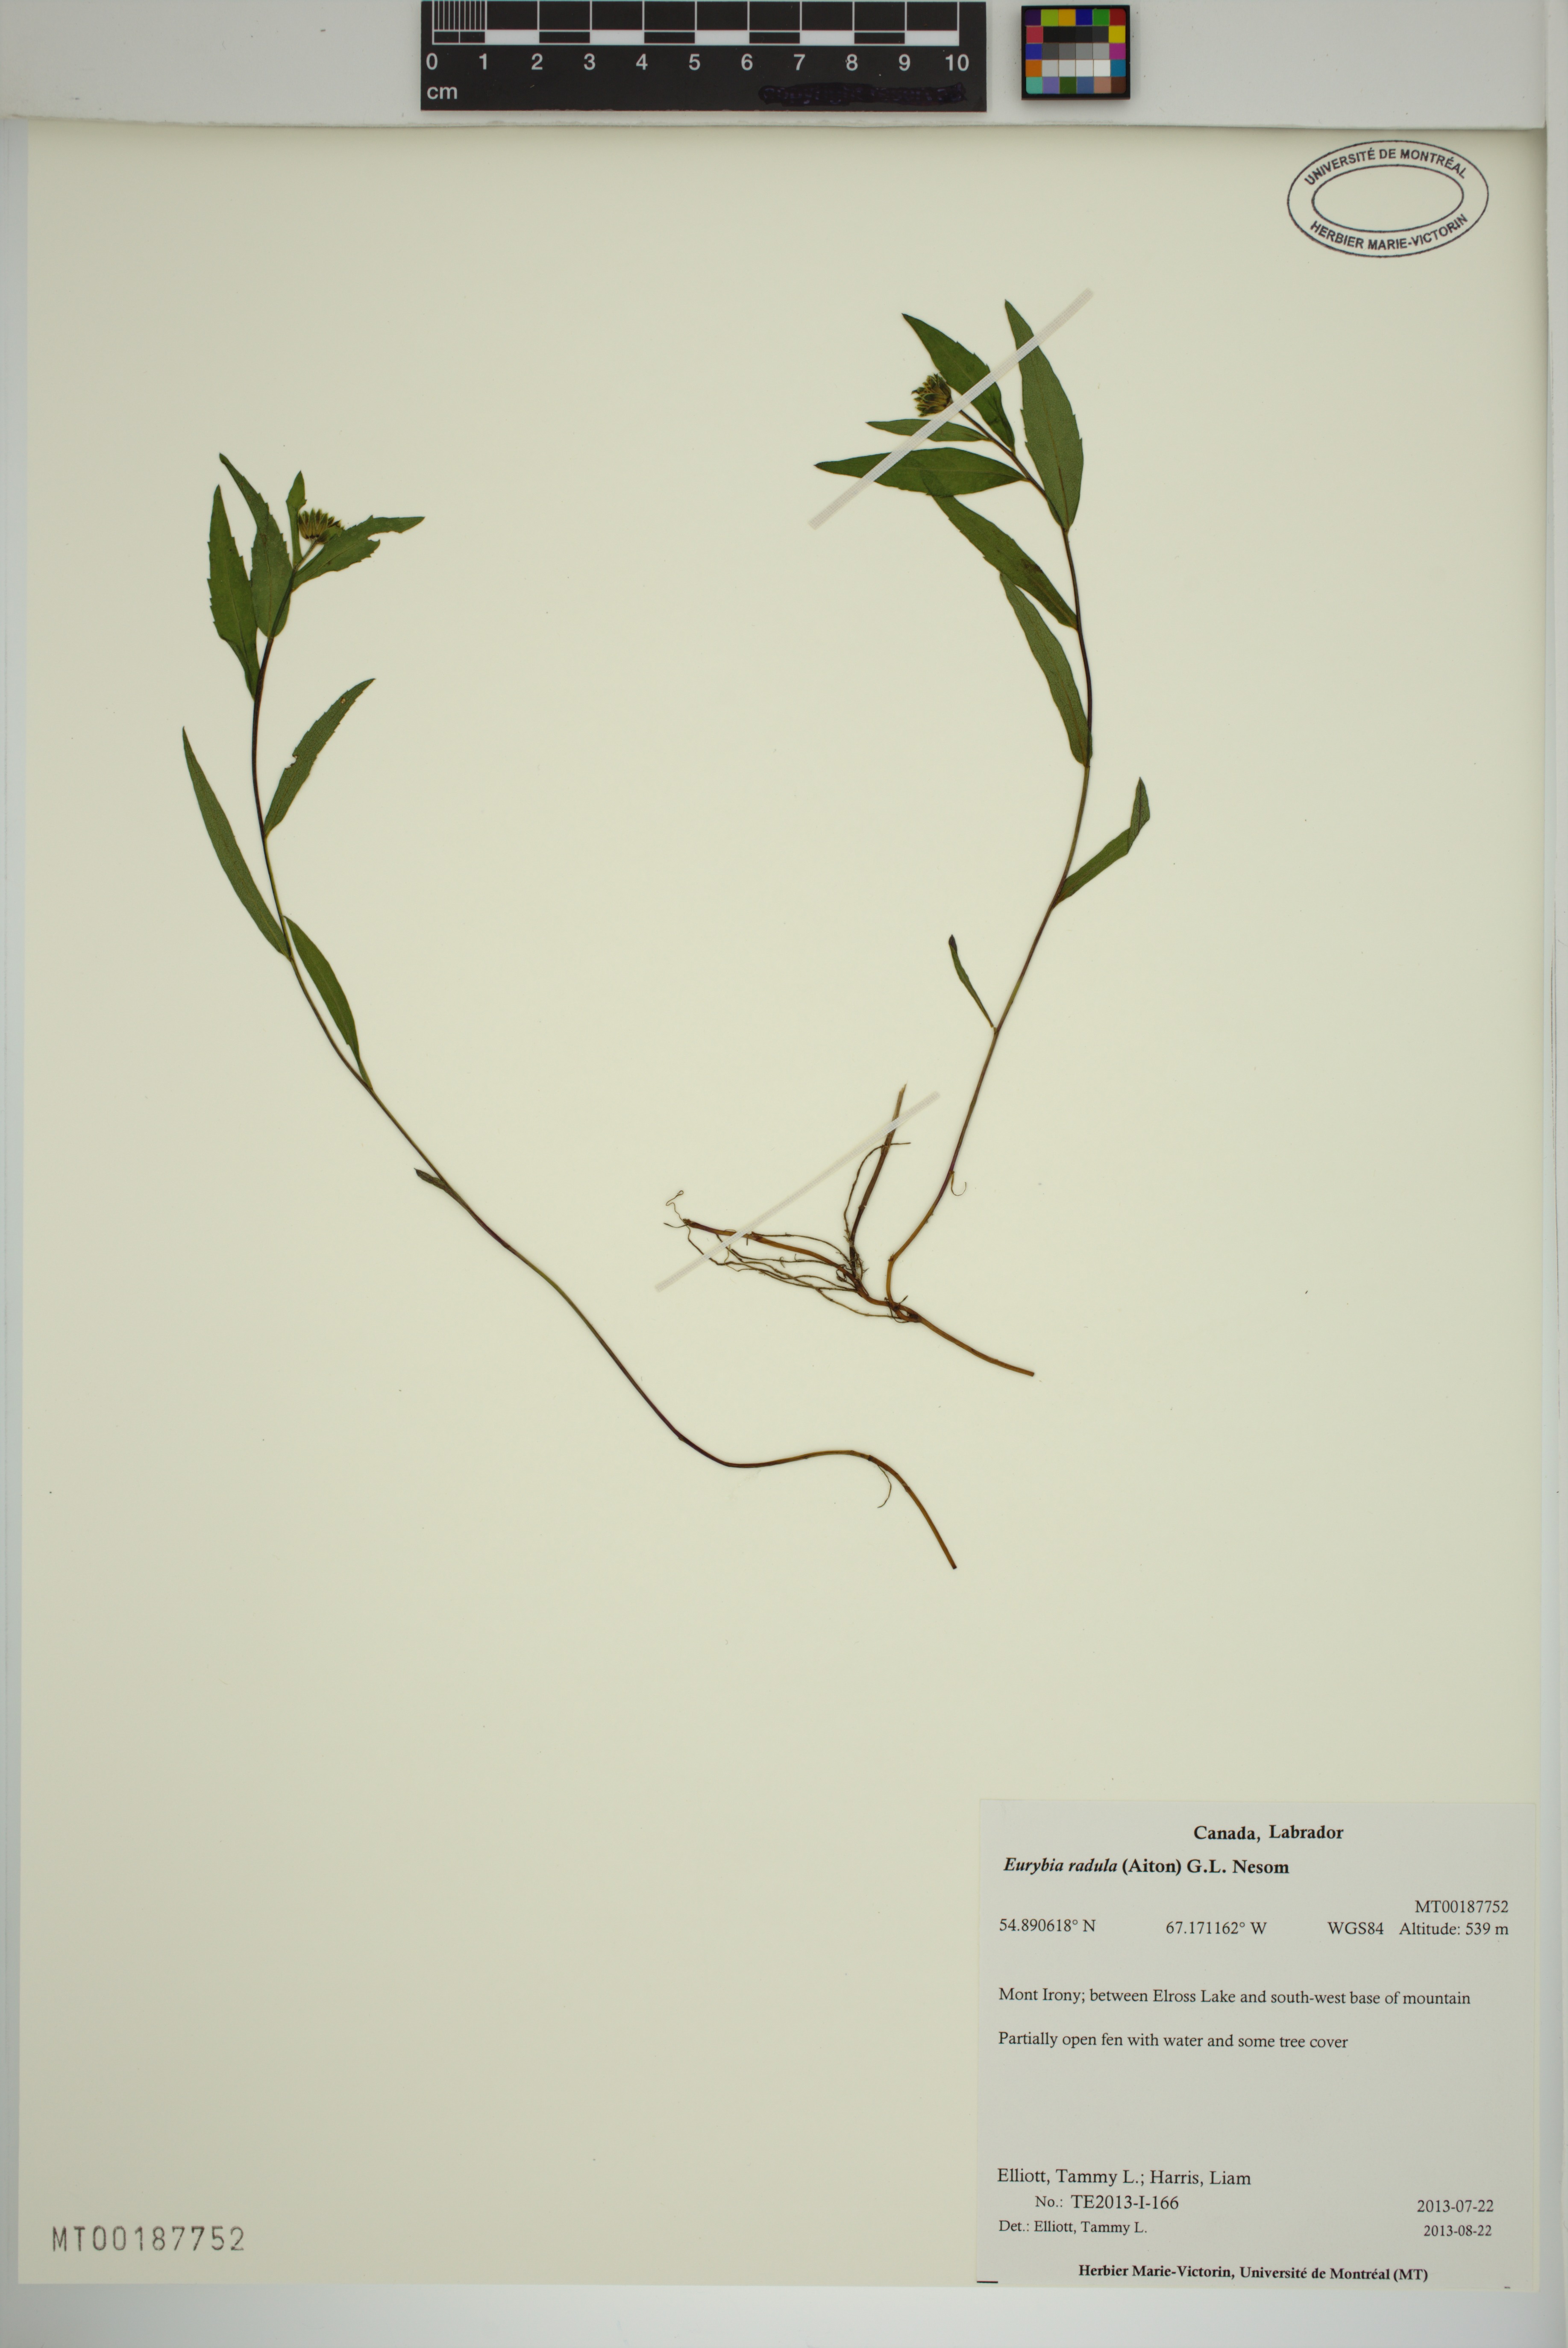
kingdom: Plantae
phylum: Tracheophyta
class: Magnoliopsida
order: Asterales
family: Asteraceae
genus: Eurybia
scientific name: Eurybia radula
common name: Low rough aster
